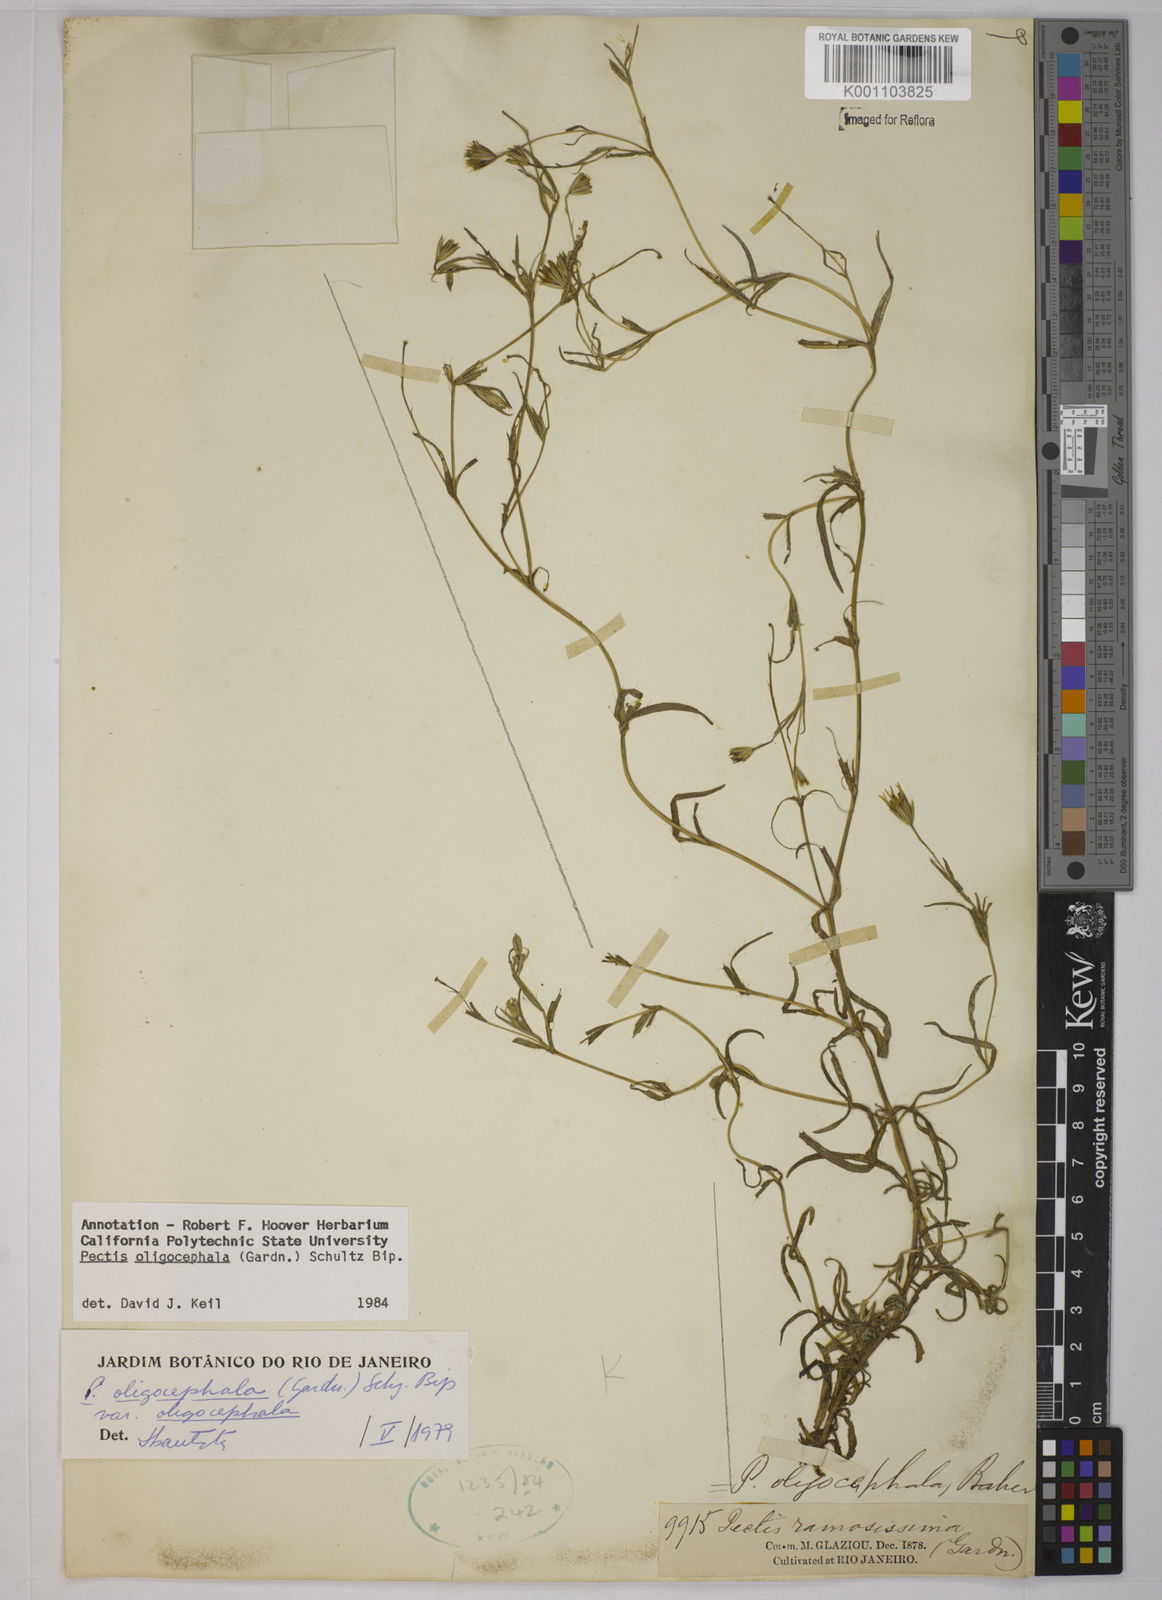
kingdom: Plantae
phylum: Tracheophyta
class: Magnoliopsida
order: Asterales
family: Asteraceae
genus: Pectis
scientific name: Pectis oligocephala
